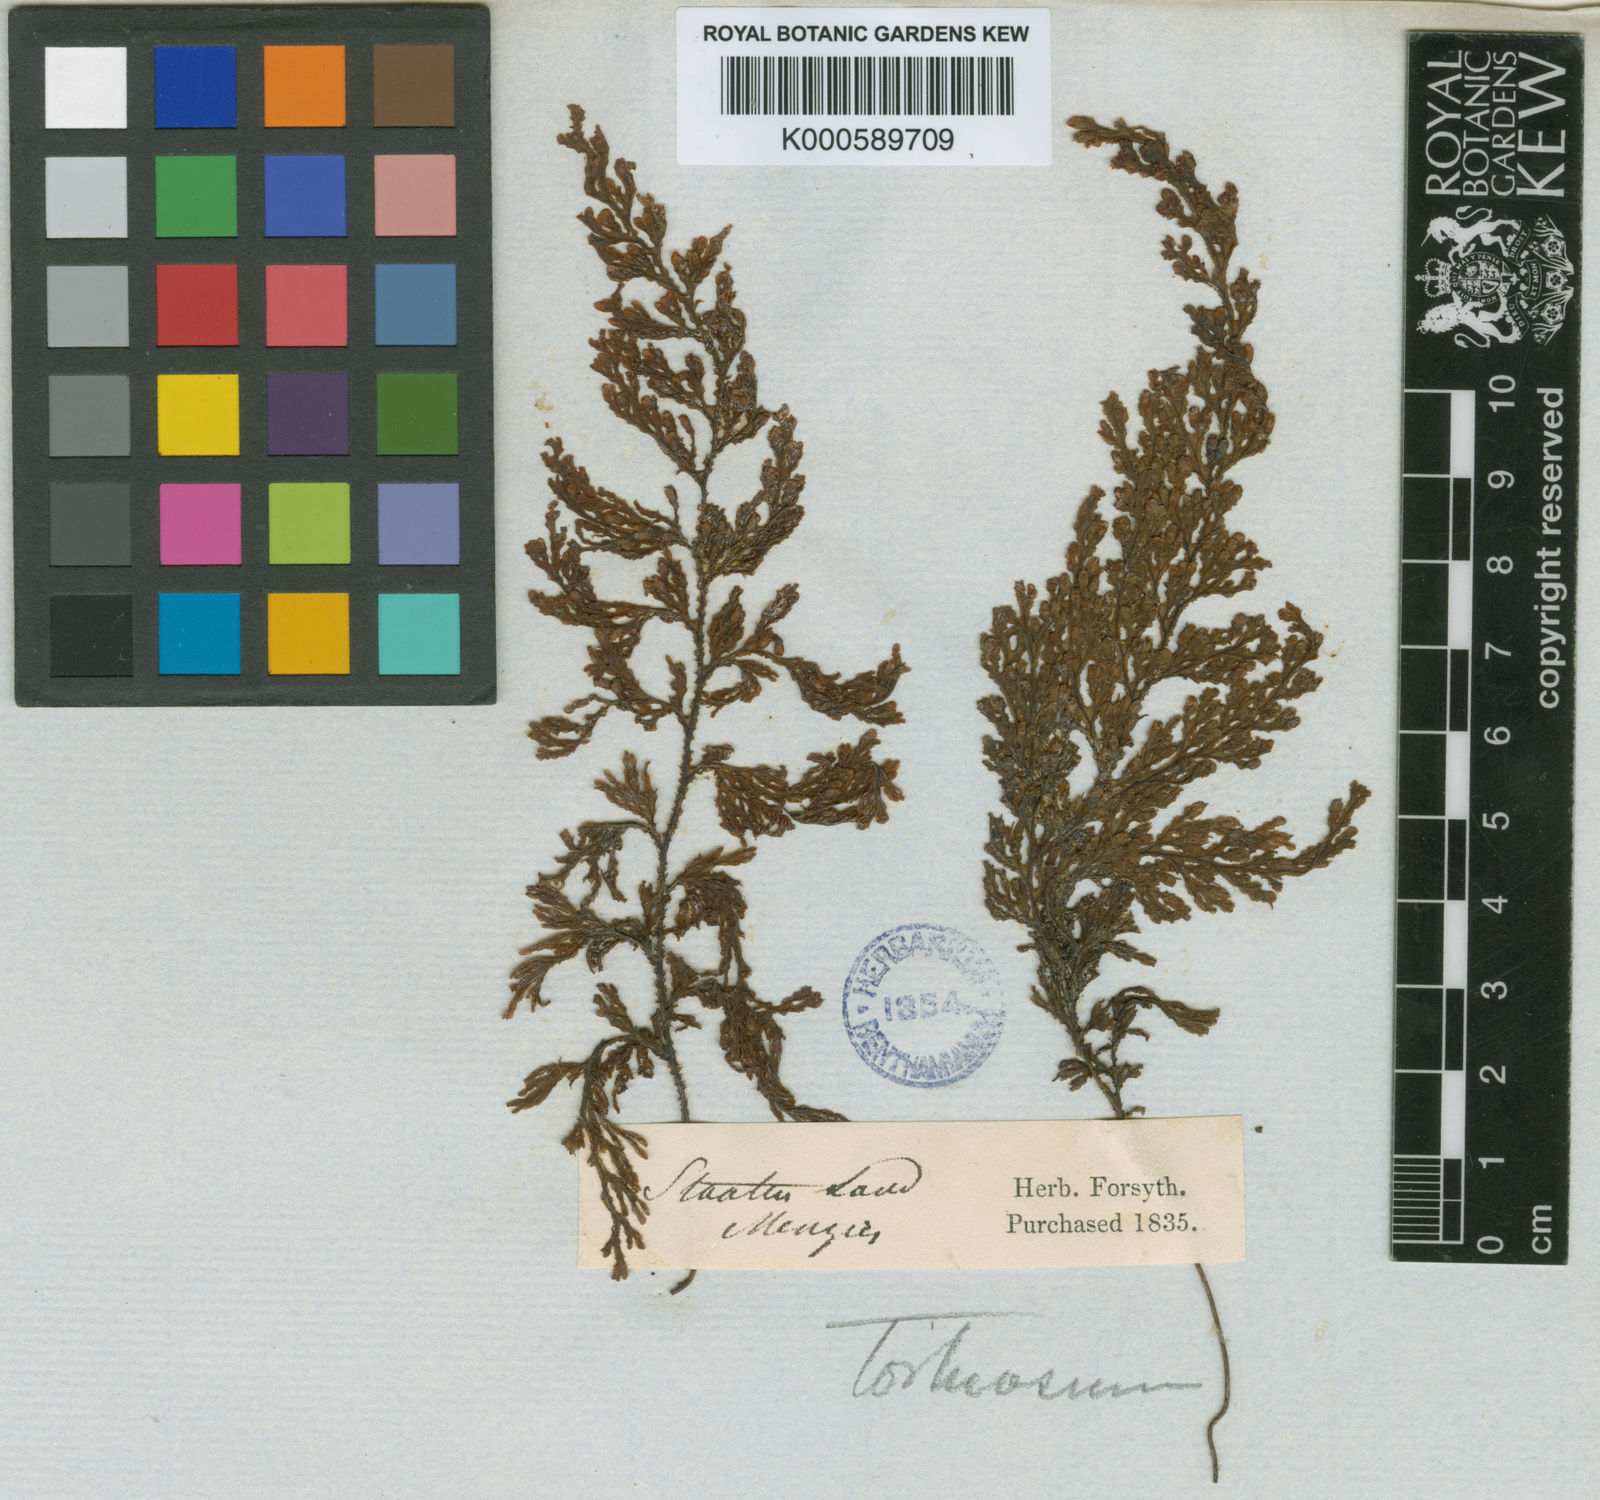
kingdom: Plantae
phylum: Tracheophyta
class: Polypodiopsida
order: Hymenophyllales
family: Hymenophyllaceae
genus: Hymenophyllum
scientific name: Hymenophyllum tortuosum
